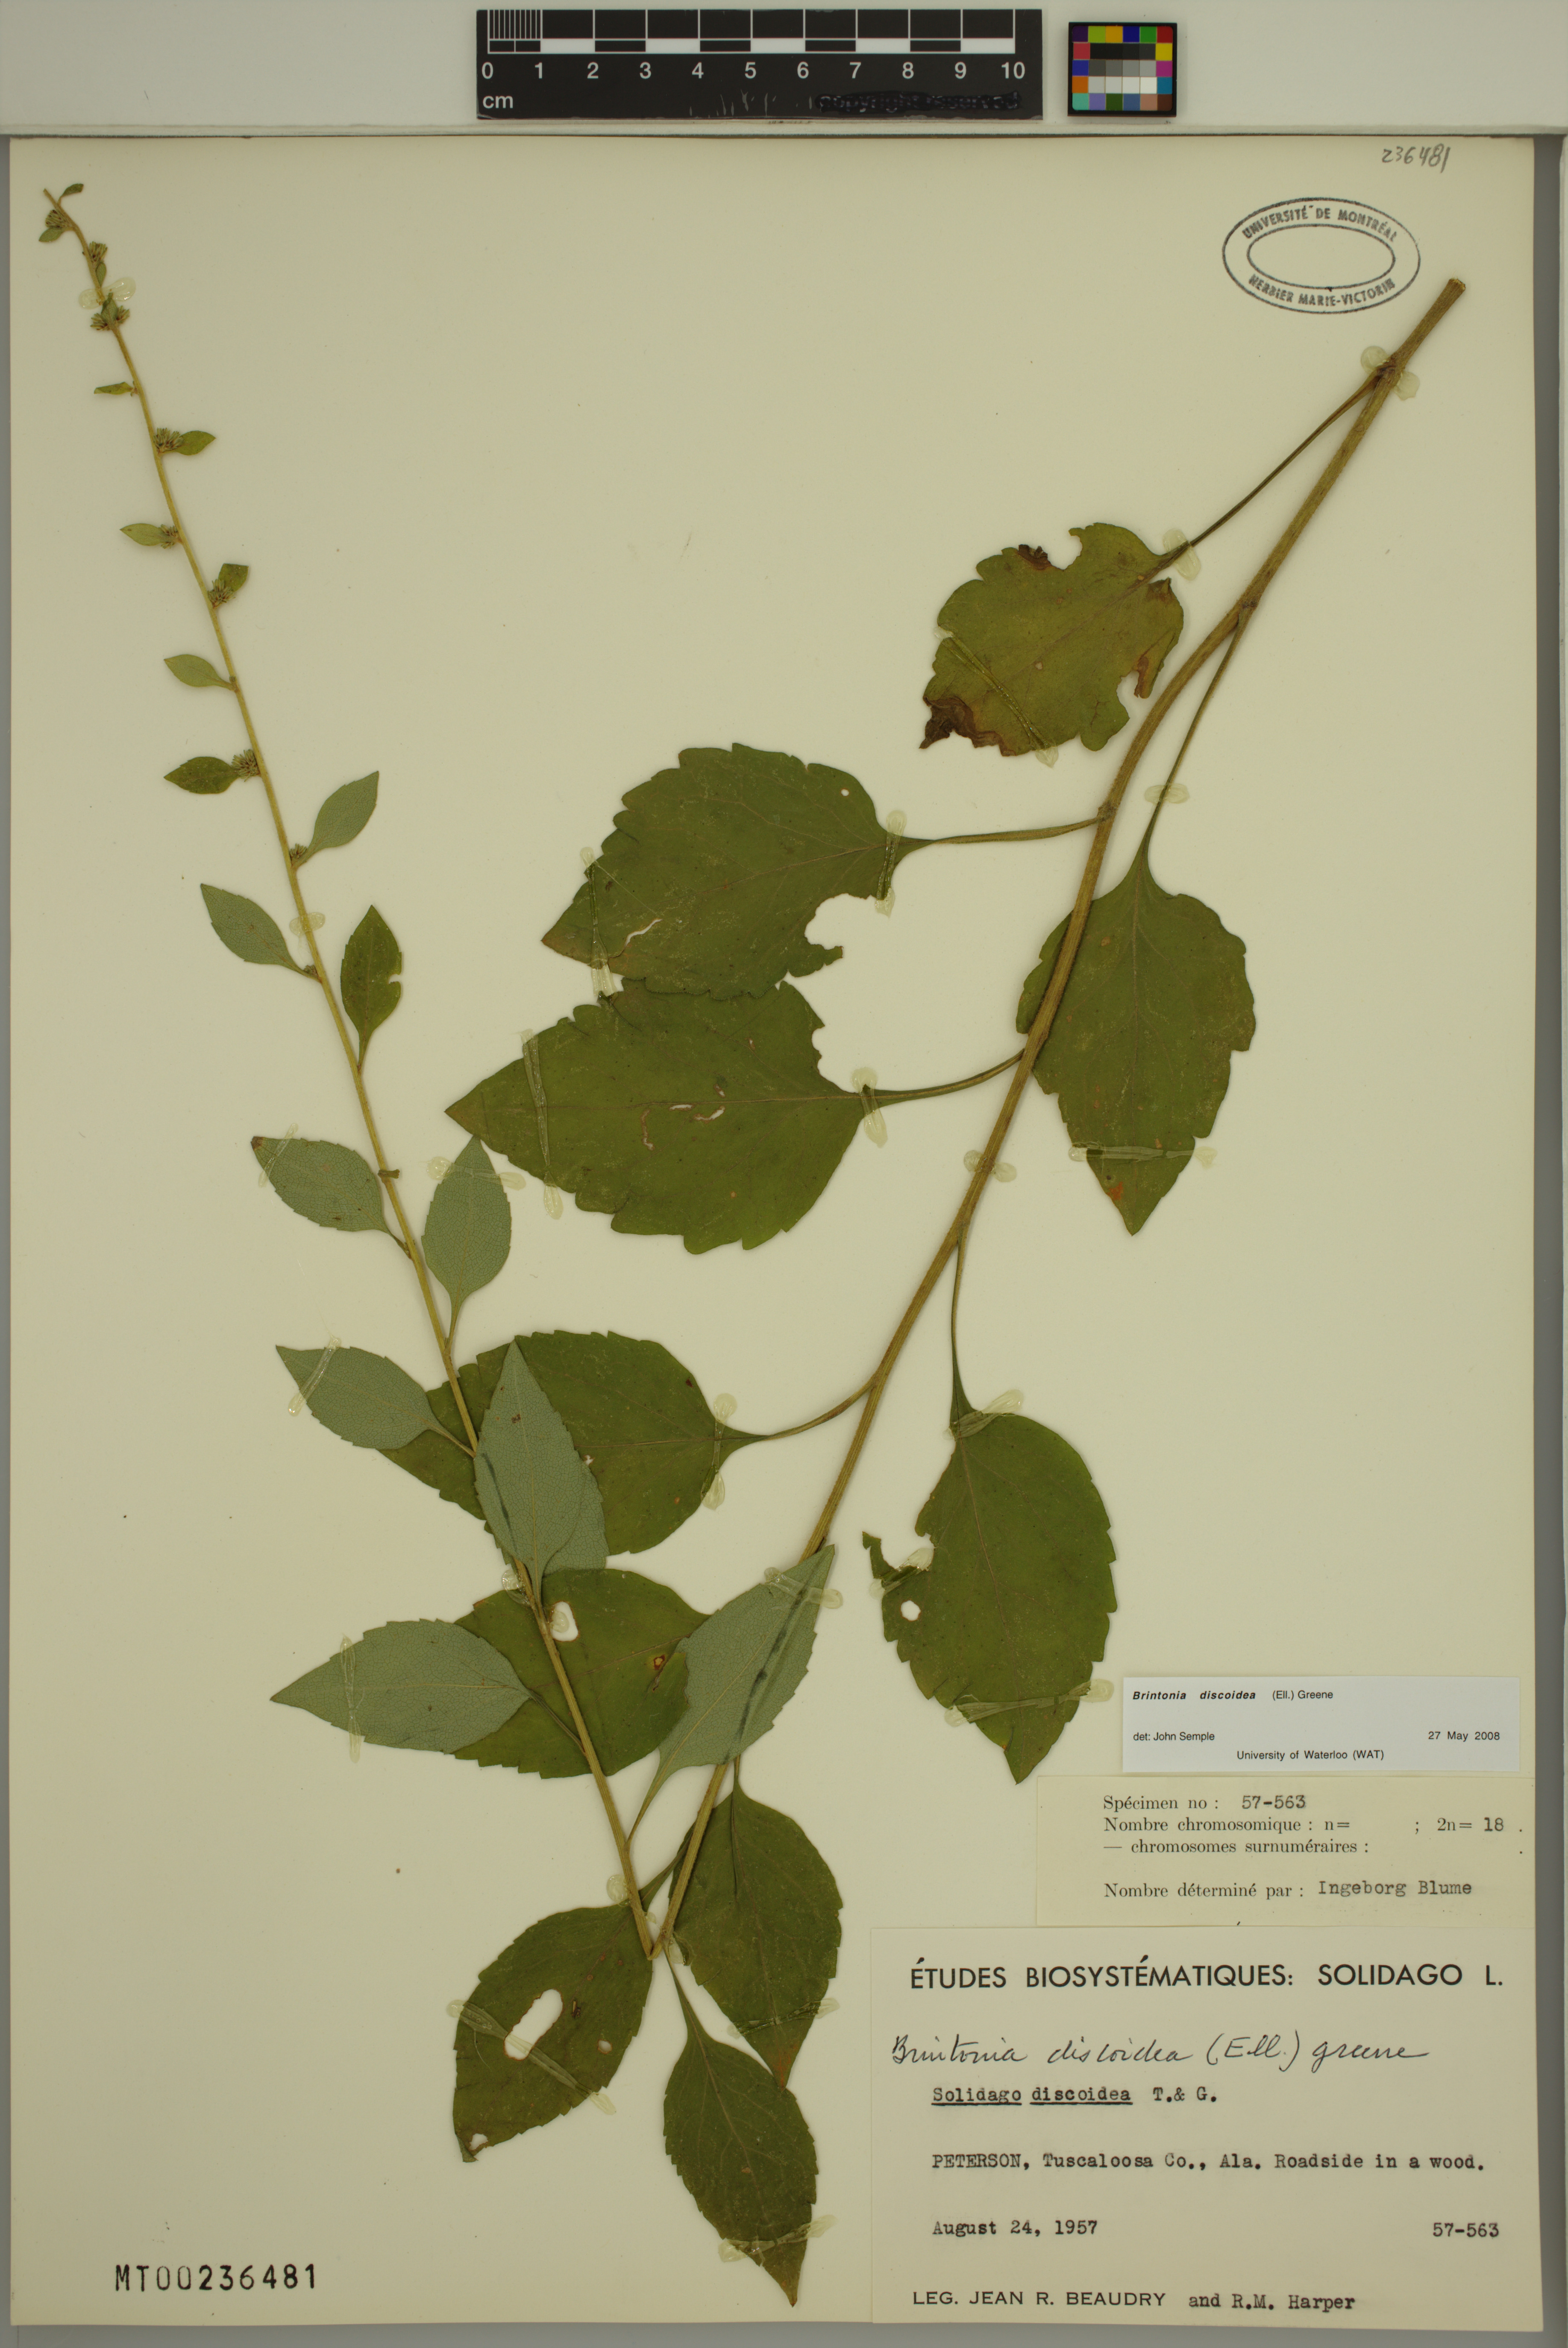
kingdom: Plantae
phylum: Tracheophyta
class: Magnoliopsida
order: Asterales
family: Asteraceae
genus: Solidago
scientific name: Solidago discoidea
